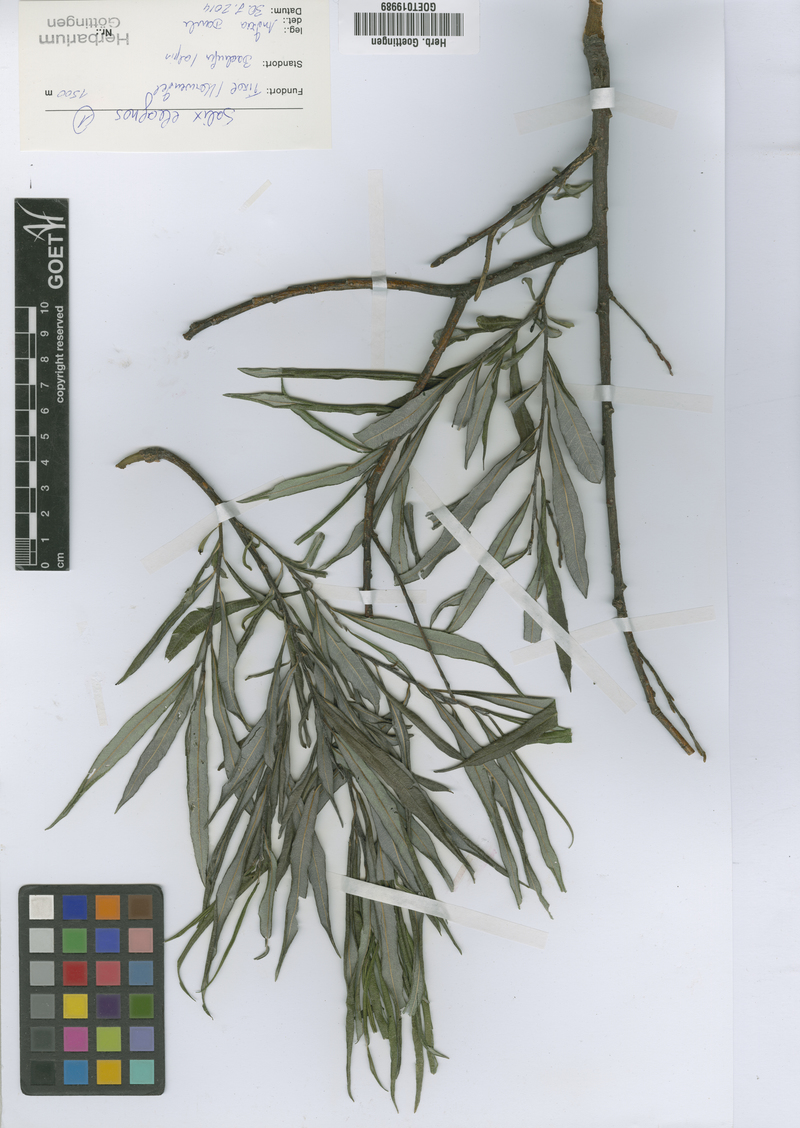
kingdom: Plantae
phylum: Tracheophyta
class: Magnoliopsida
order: Malpighiales
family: Salicaceae
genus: Salix
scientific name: Salix eleagnos
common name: Elaeagnus willow
